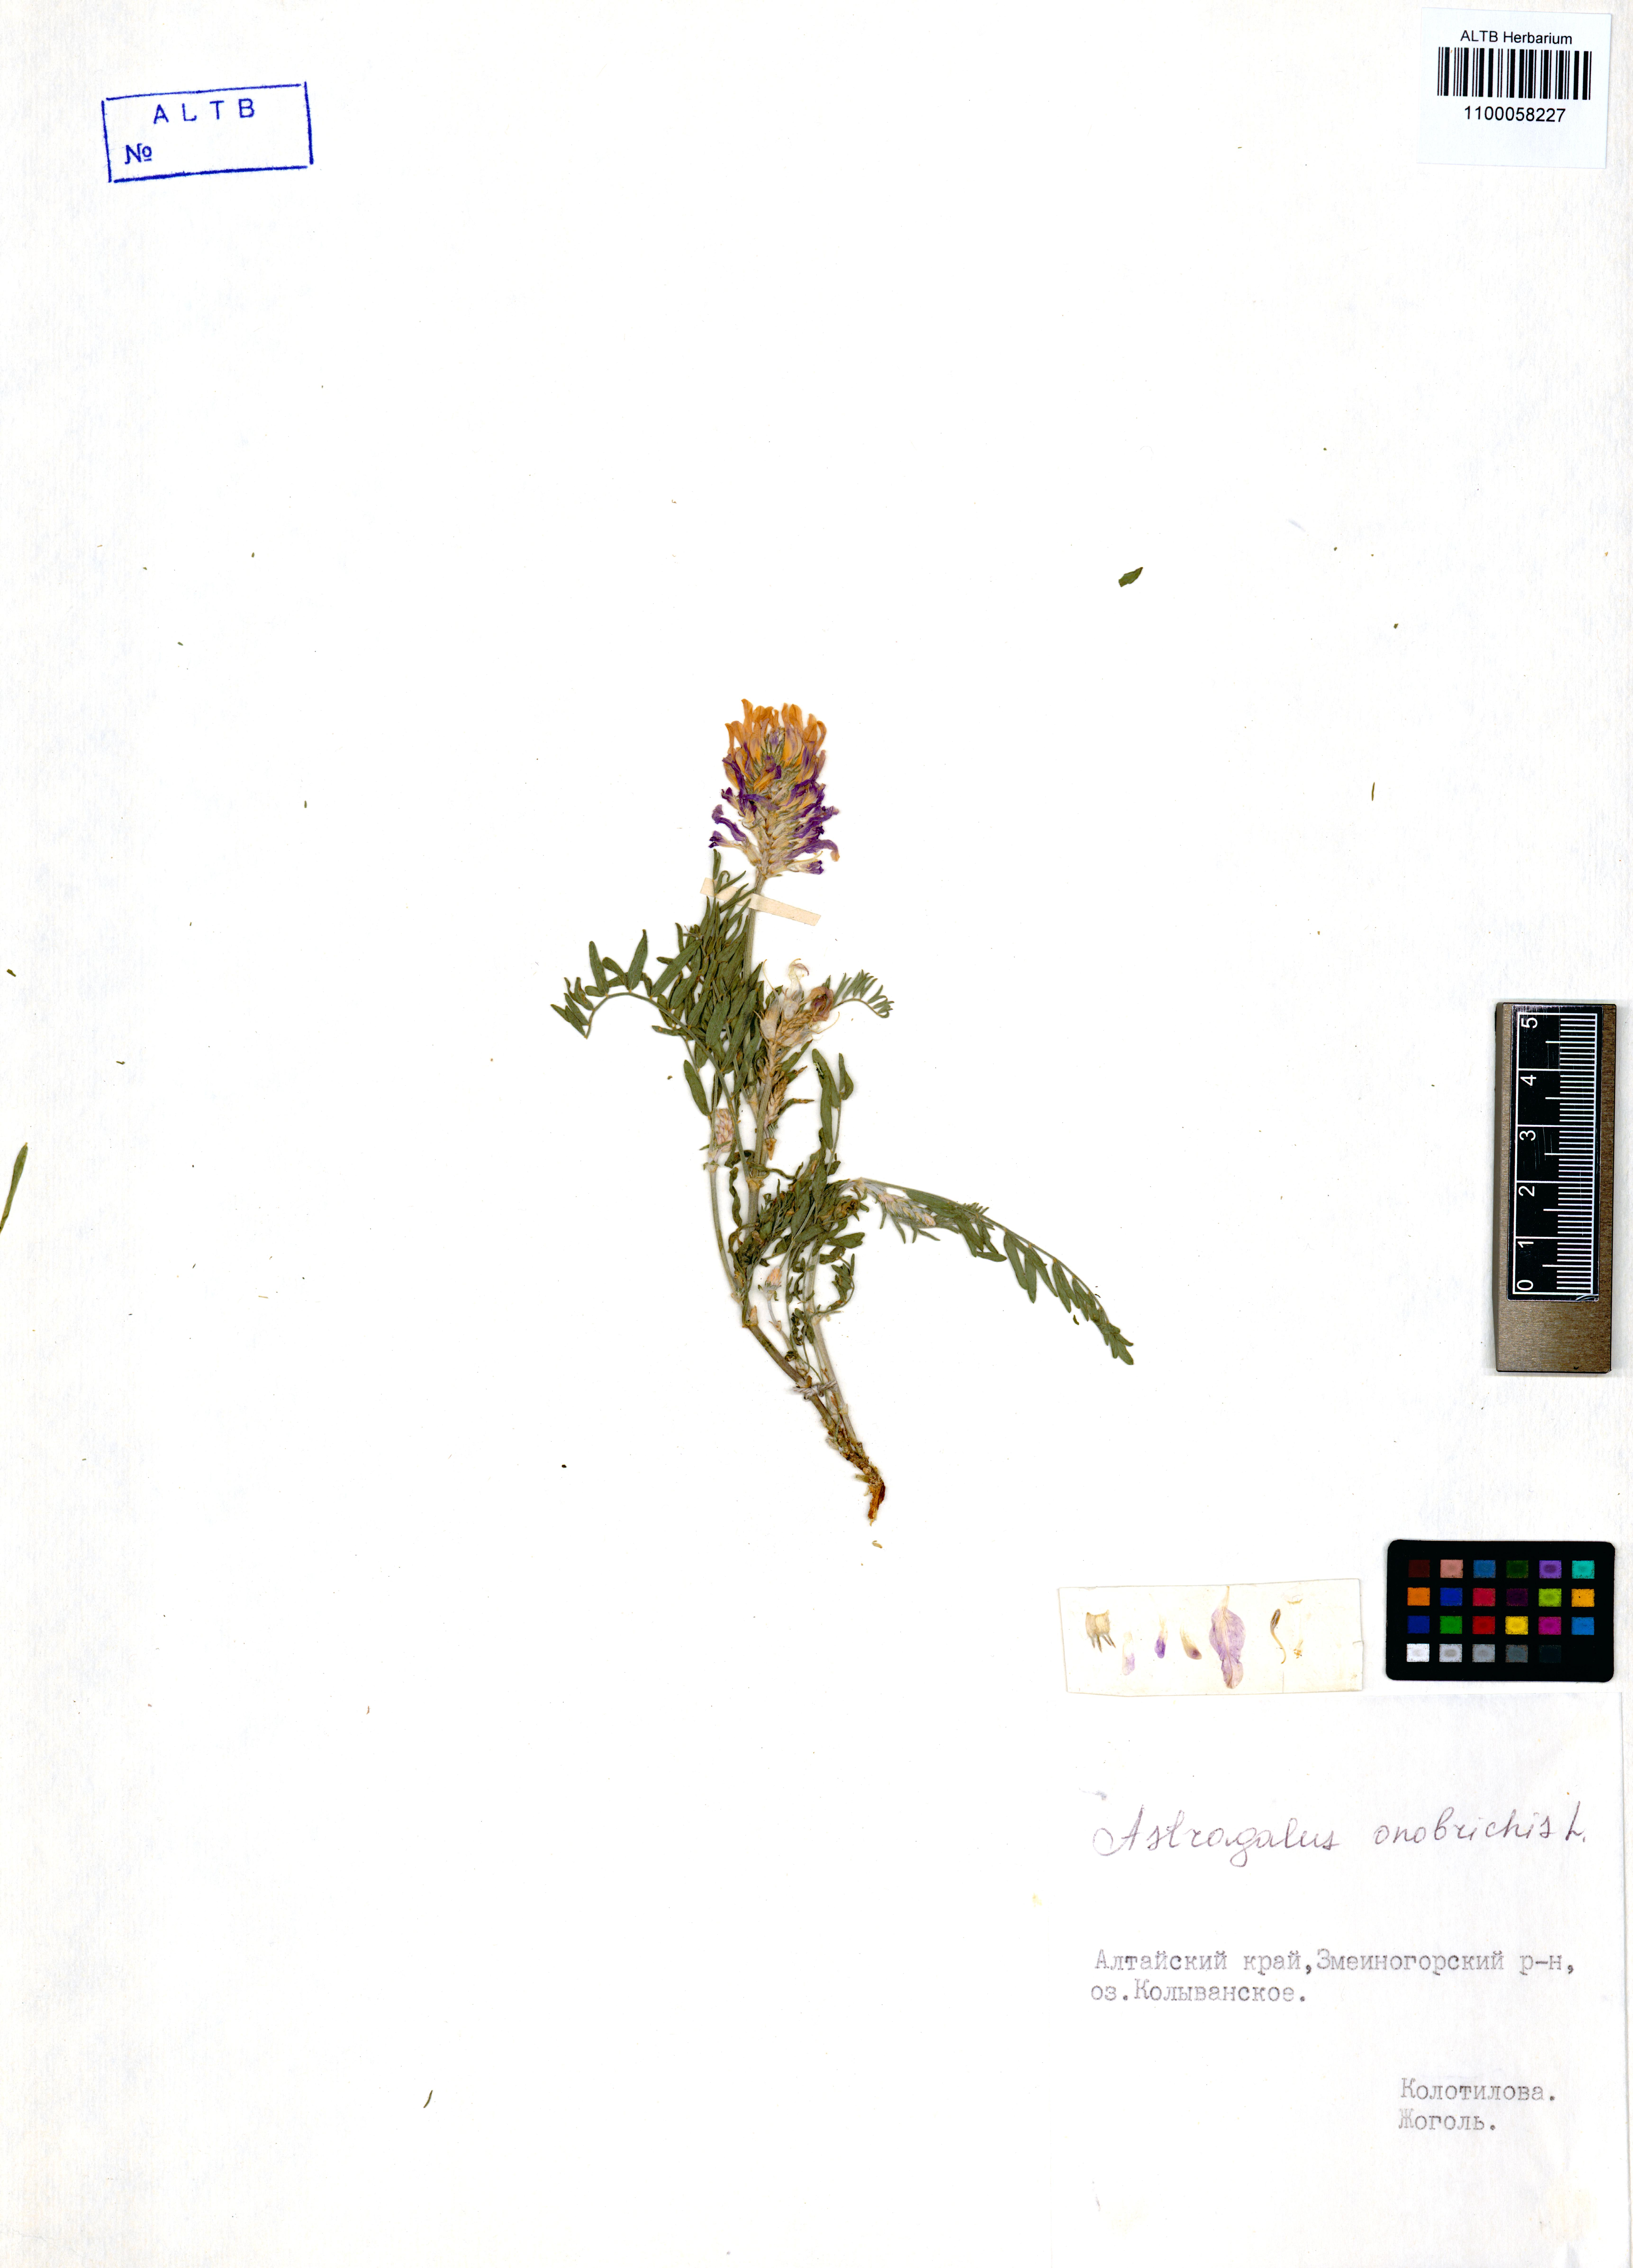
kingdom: Plantae
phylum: Tracheophyta
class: Magnoliopsida
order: Fabales
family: Fabaceae
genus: Astragalus
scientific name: Astragalus onobrychis
